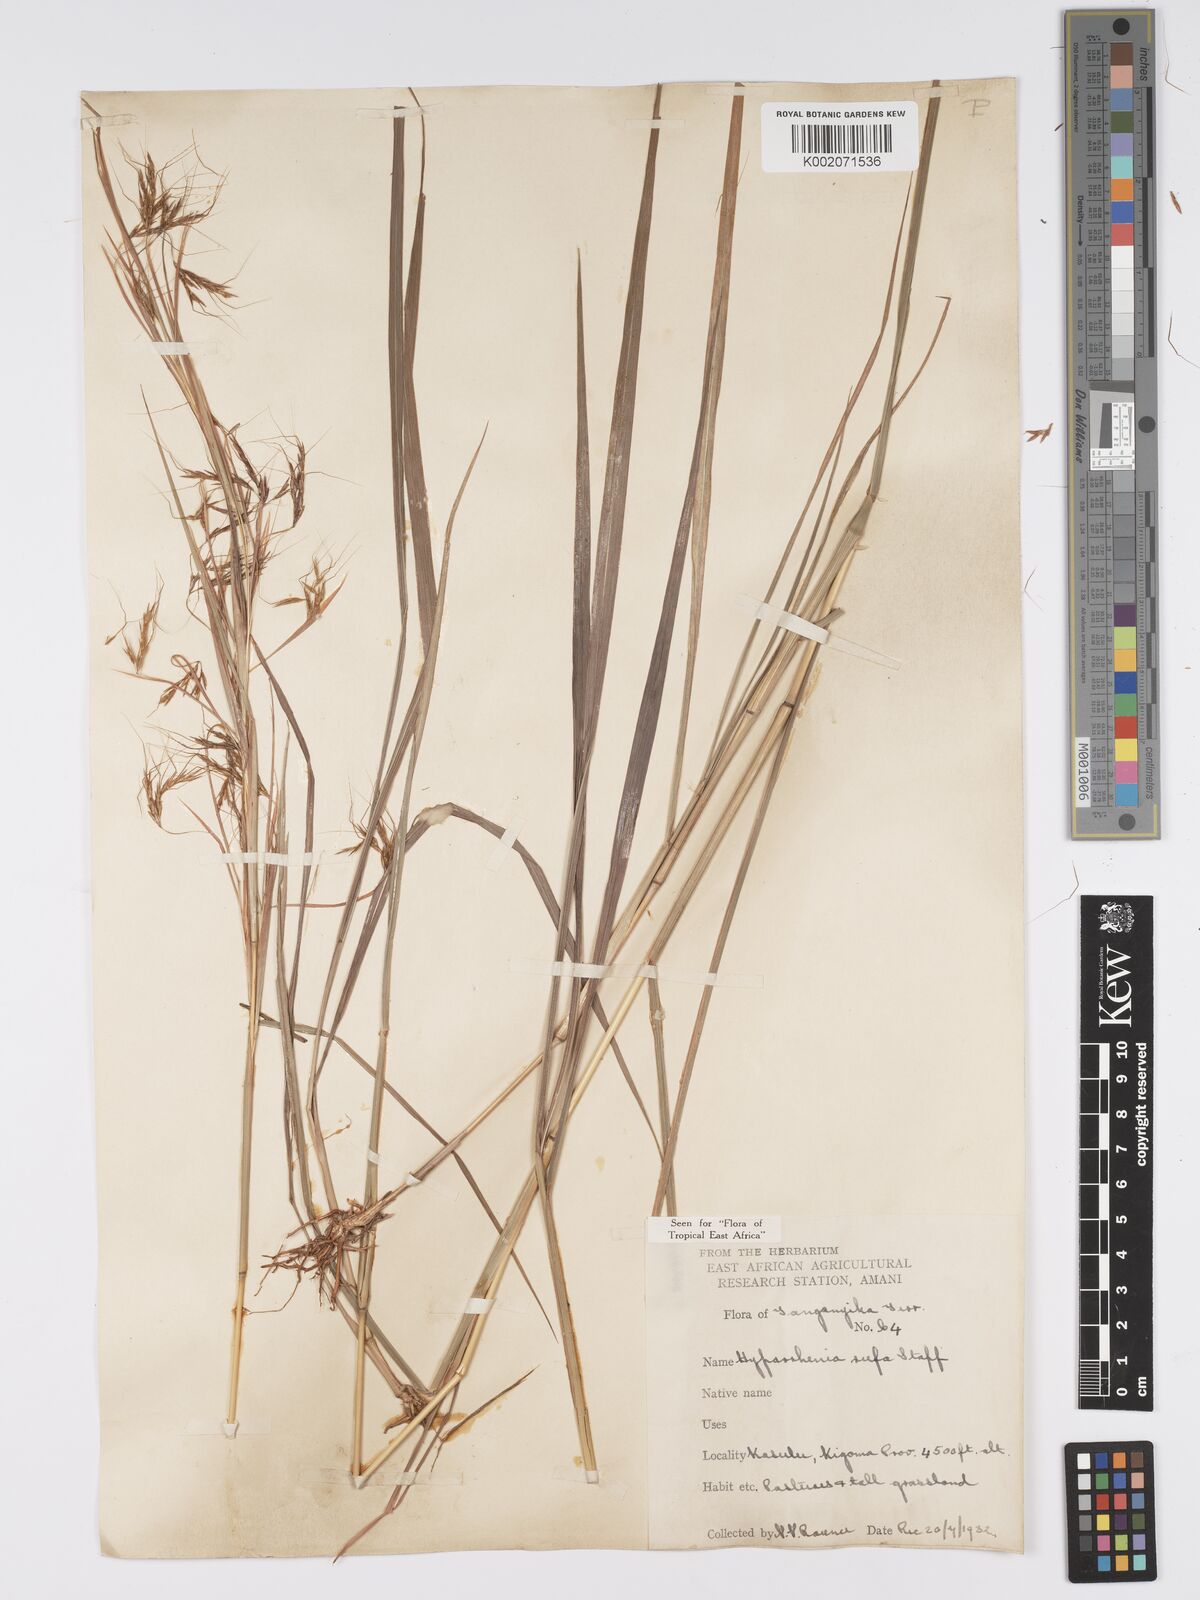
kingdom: Plantae
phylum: Tracheophyta
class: Liliopsida
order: Poales
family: Poaceae
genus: Hyparrhenia
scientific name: Hyparrhenia rufa
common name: Jaraguagrass
